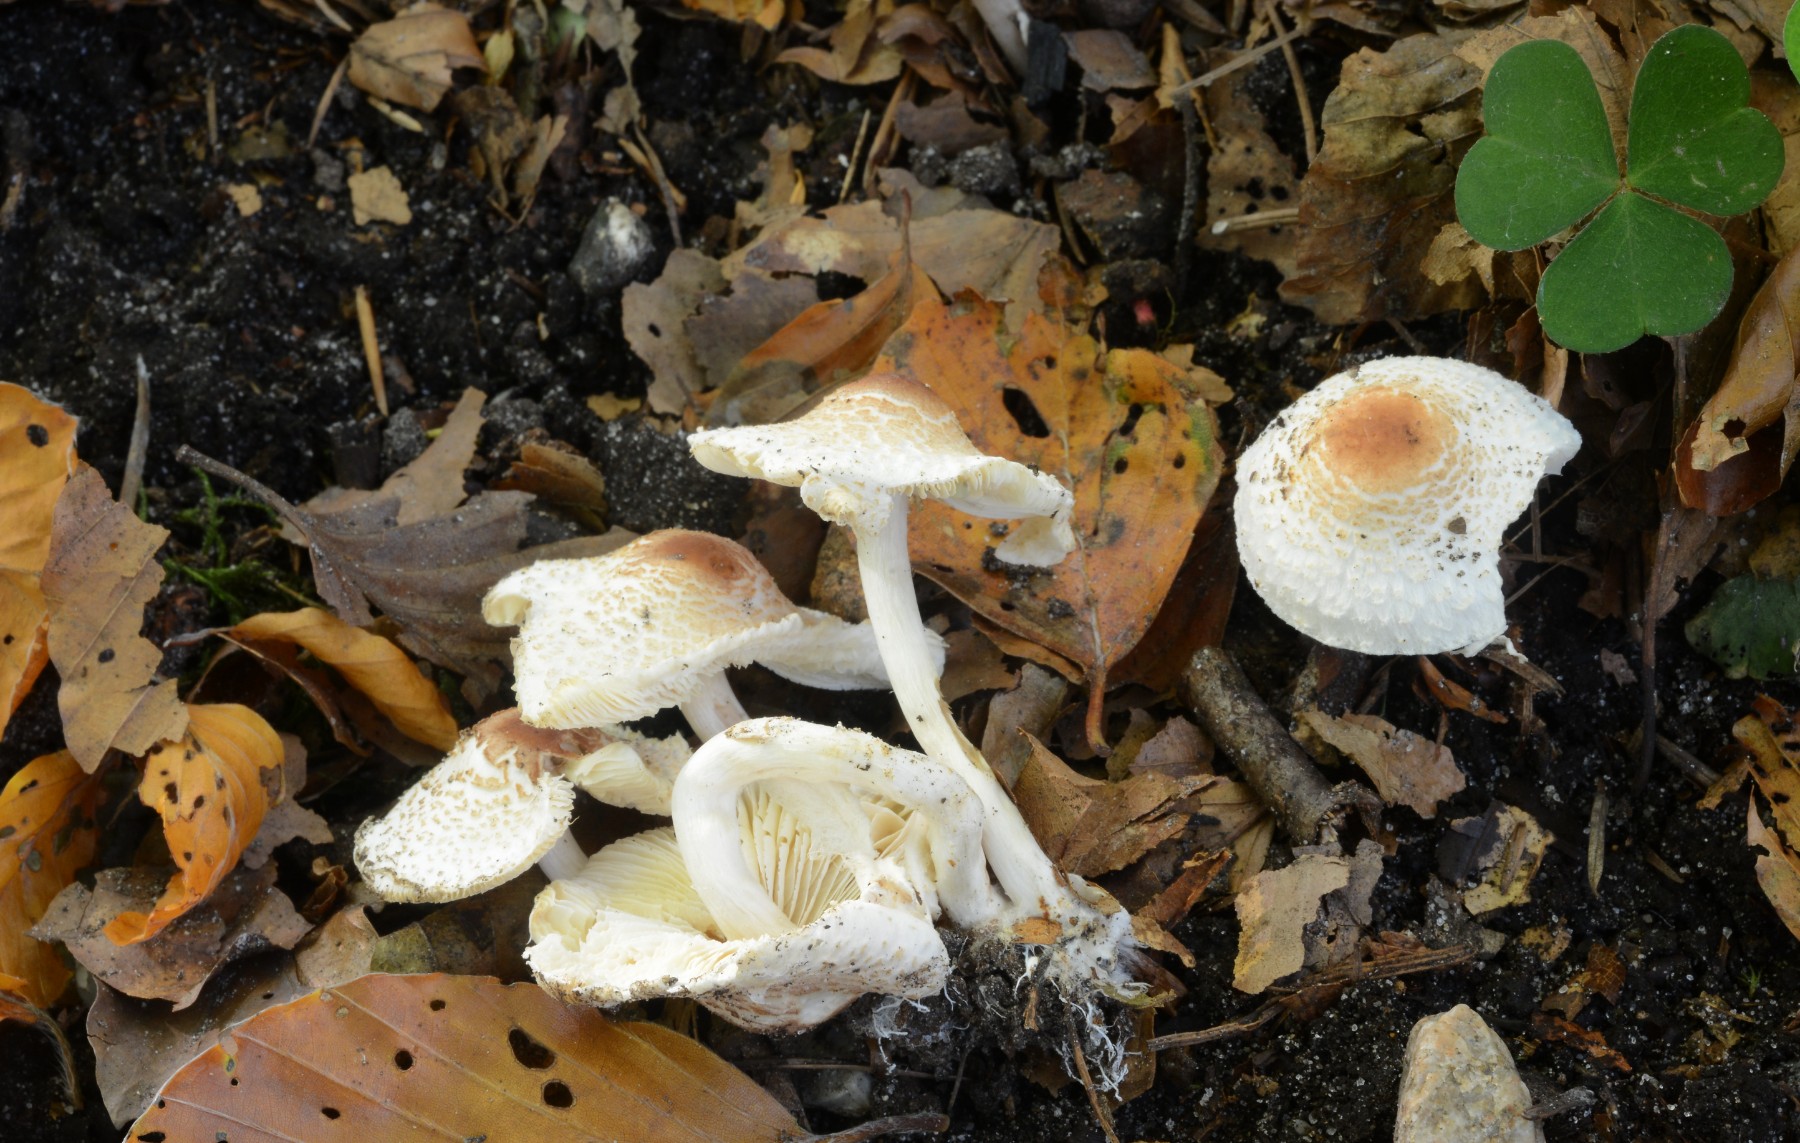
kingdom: Fungi
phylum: Basidiomycota
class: Agaricomycetes
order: Agaricales
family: Agaricaceae
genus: Lepiota
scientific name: Lepiota cristata
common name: stinkende parasolhat
